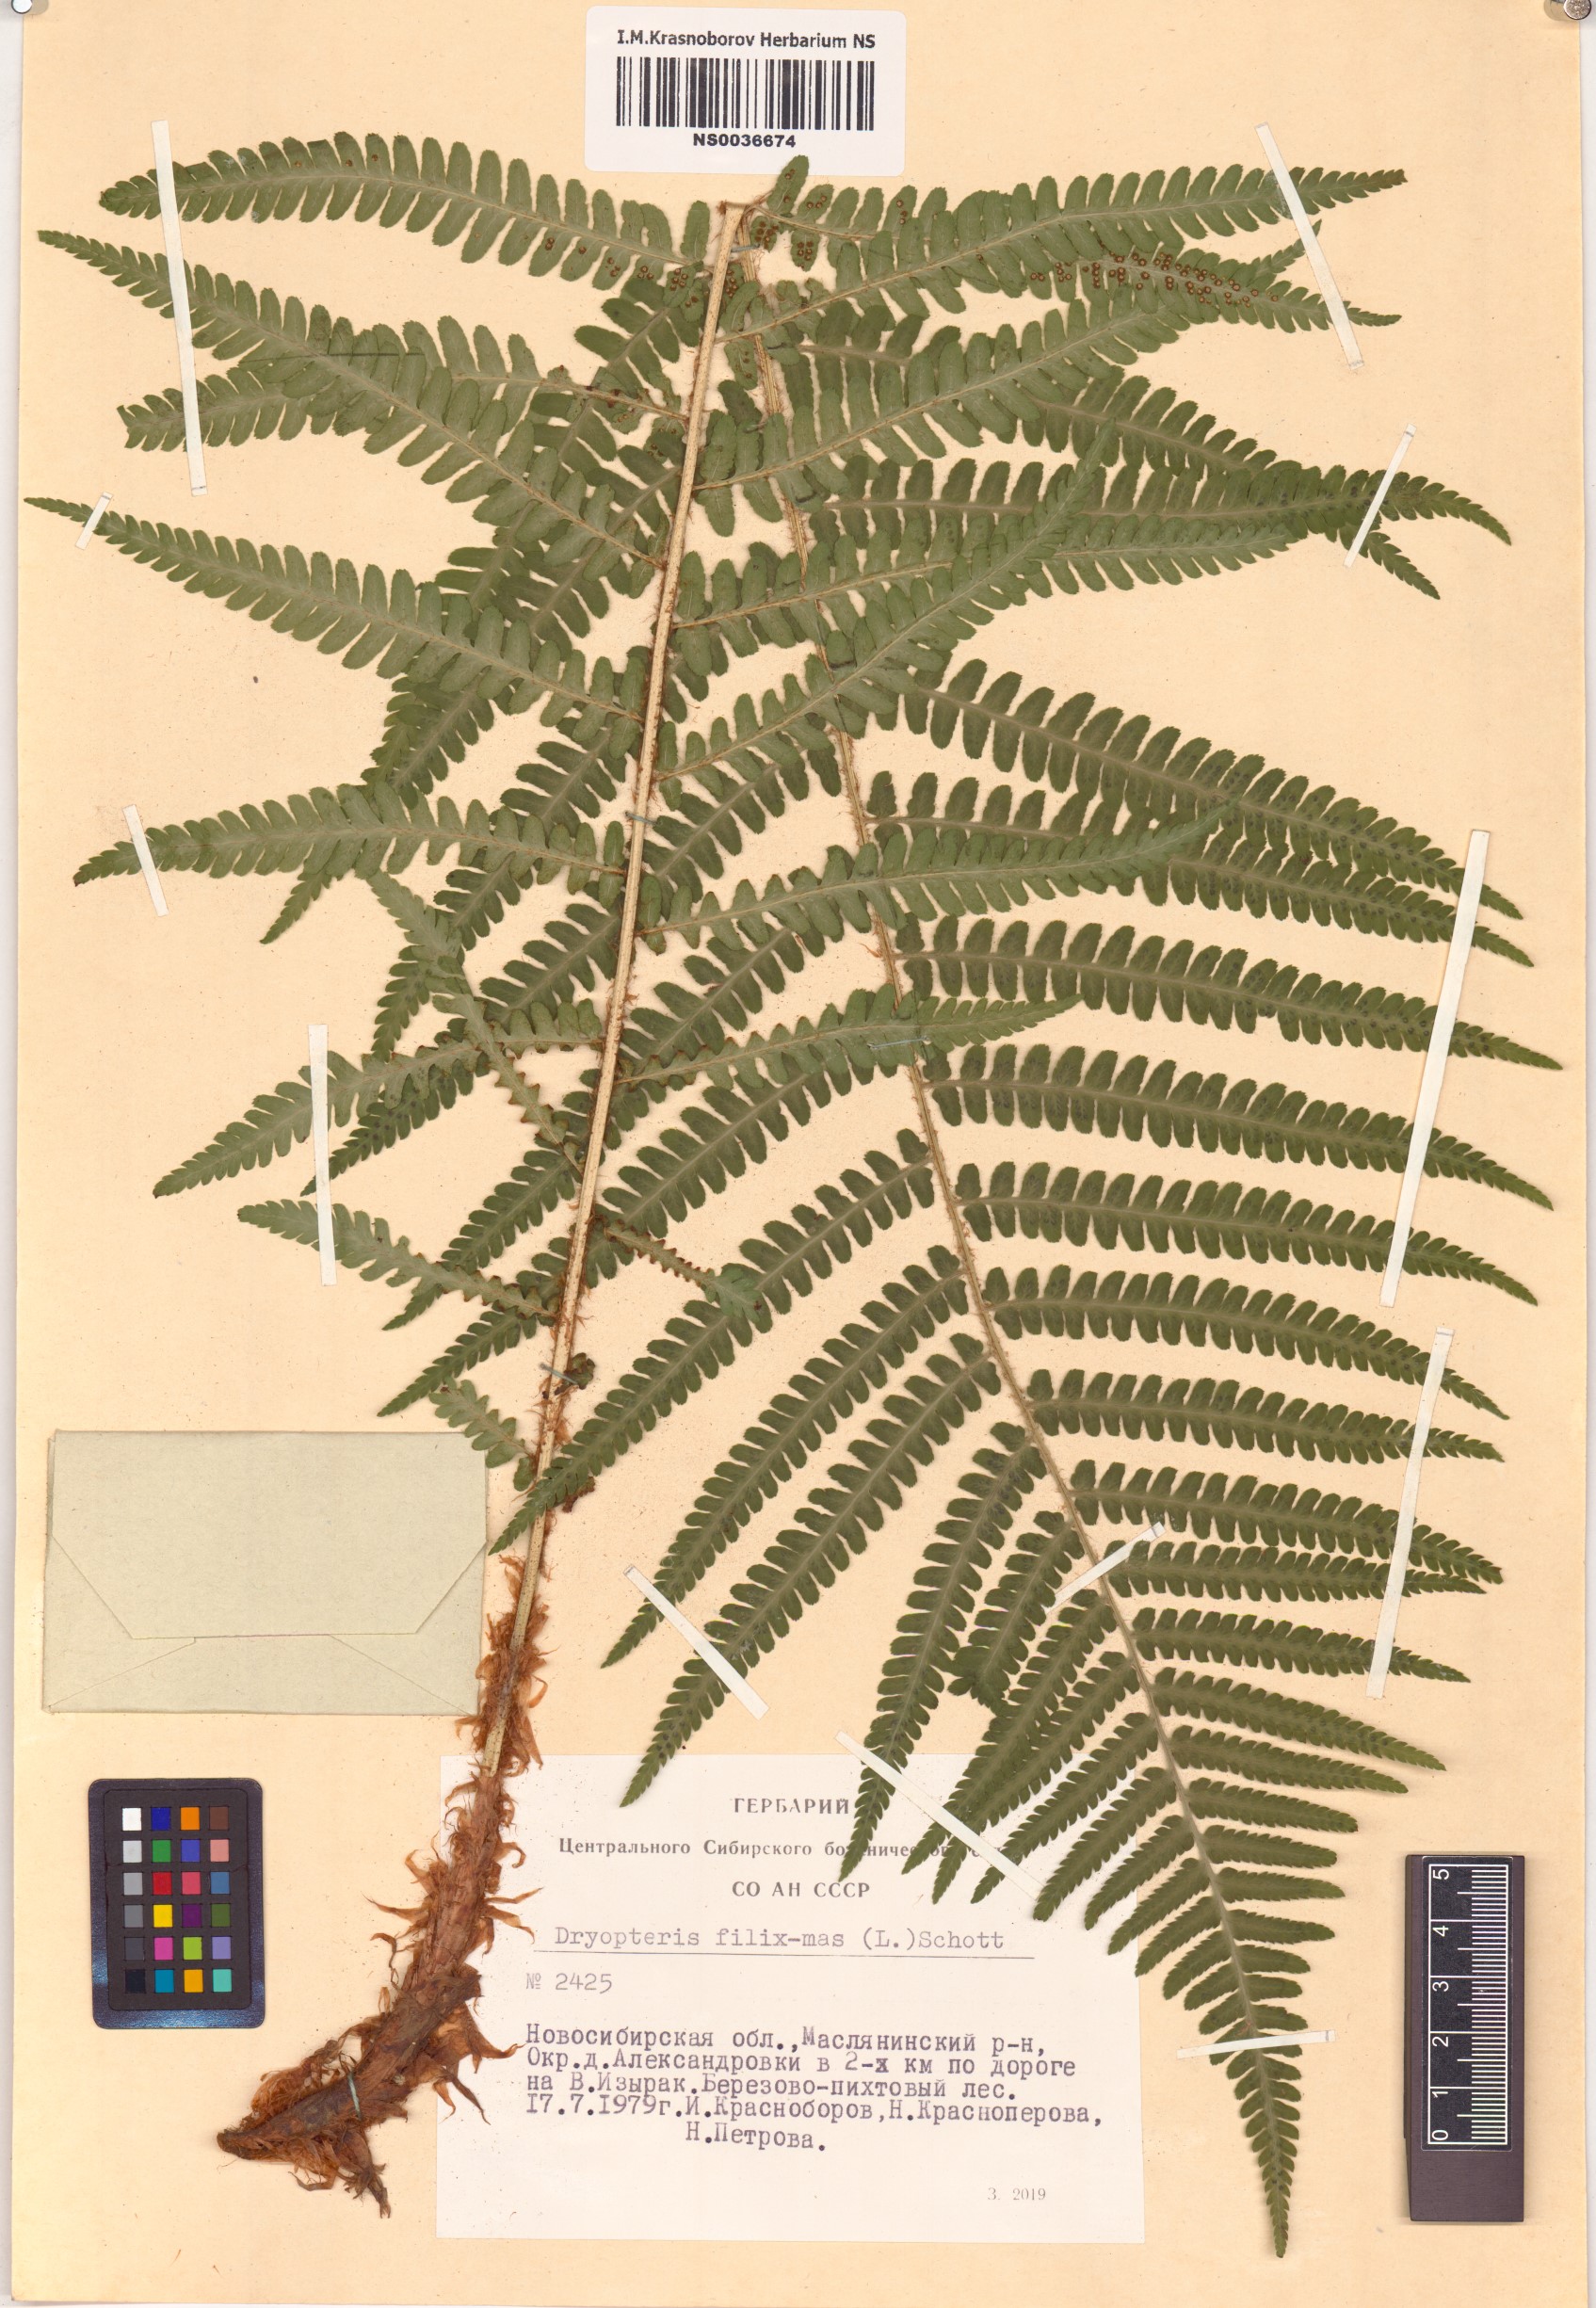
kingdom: Plantae
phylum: Tracheophyta
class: Polypodiopsida
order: Polypodiales
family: Dryopteridaceae
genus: Dryopteris
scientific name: Dryopteris filix-mas
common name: Male fern
